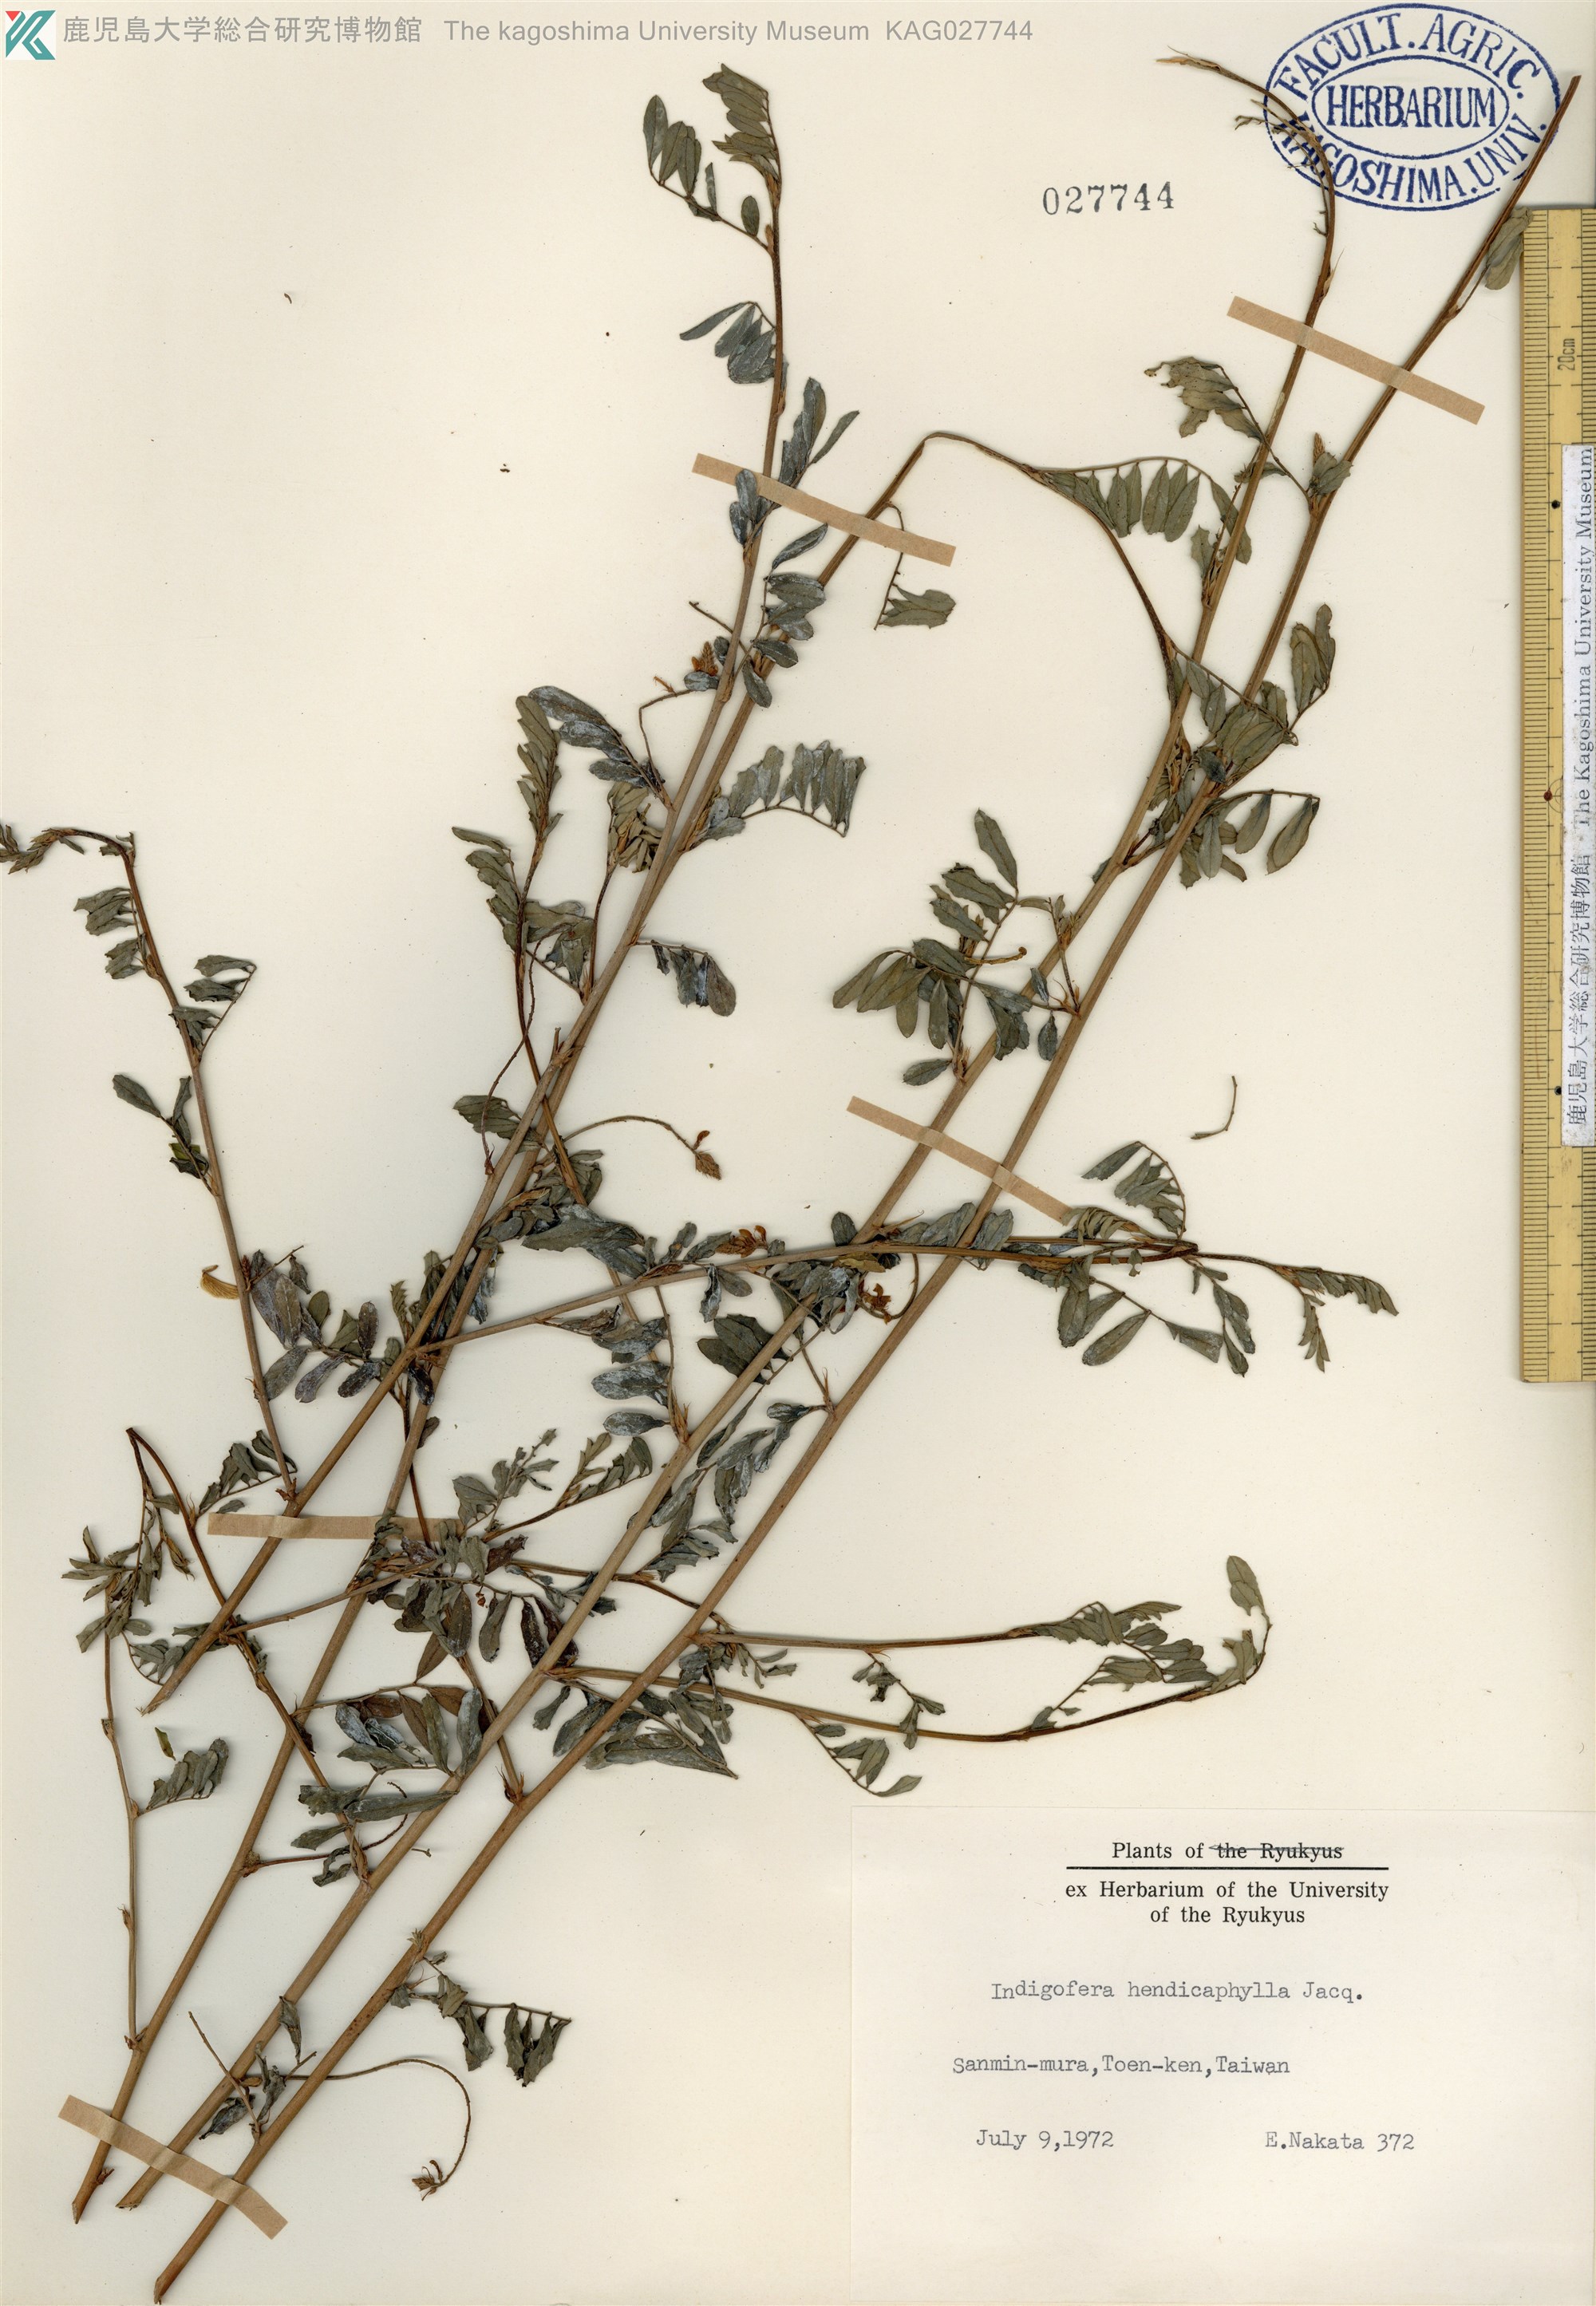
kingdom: Plantae
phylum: Tracheophyta
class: Magnoliopsida
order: Fabales
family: Fabaceae
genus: Indigofera
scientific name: Indigofera hendecaphylla
